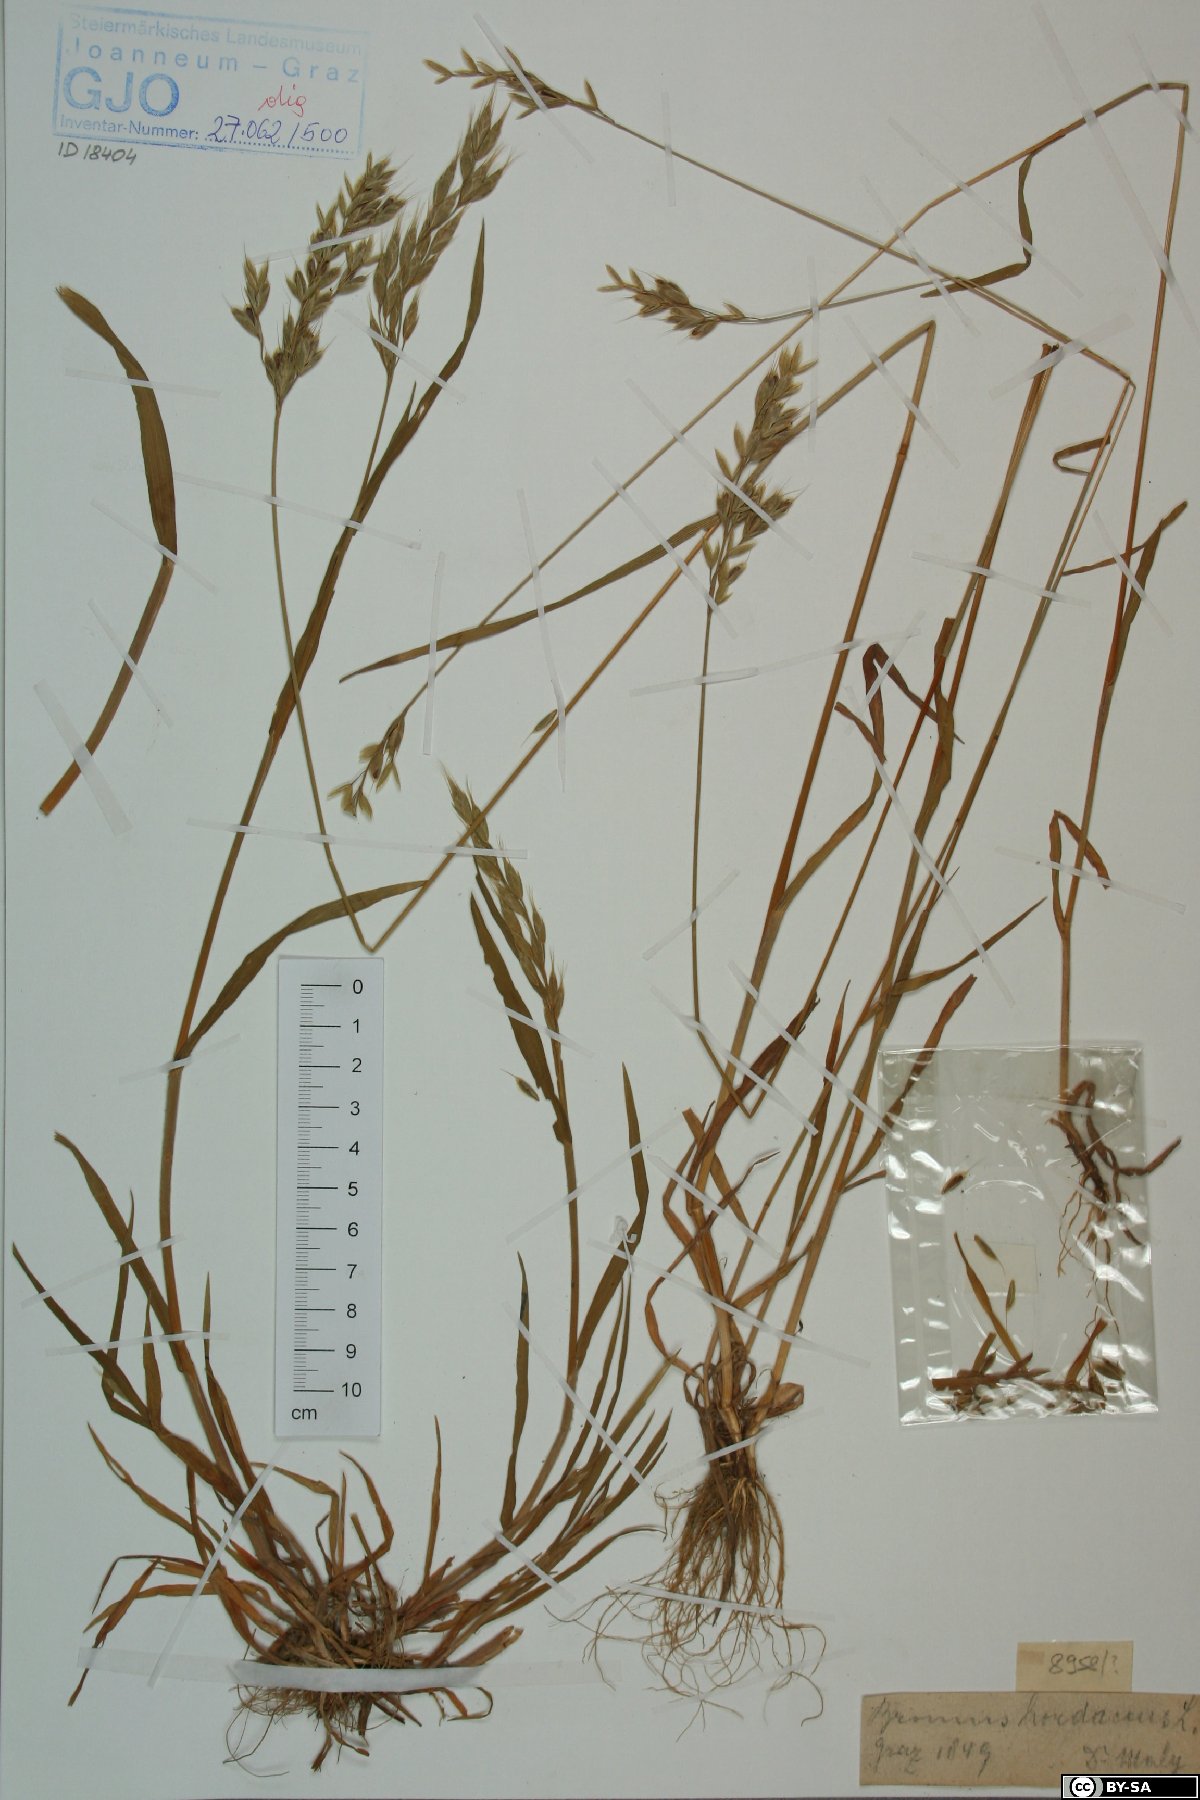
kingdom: Plantae
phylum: Tracheophyta
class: Liliopsida
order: Poales
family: Poaceae
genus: Bromus
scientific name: Bromus hordeaceus
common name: Soft brome
